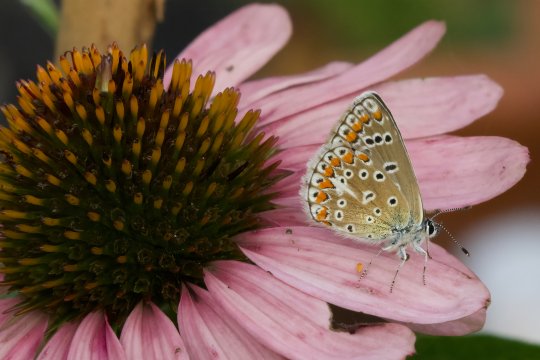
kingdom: Animalia
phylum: Arthropoda
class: Insecta
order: Lepidoptera
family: Lycaenidae
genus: Polyommatus
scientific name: Polyommatus icarus
